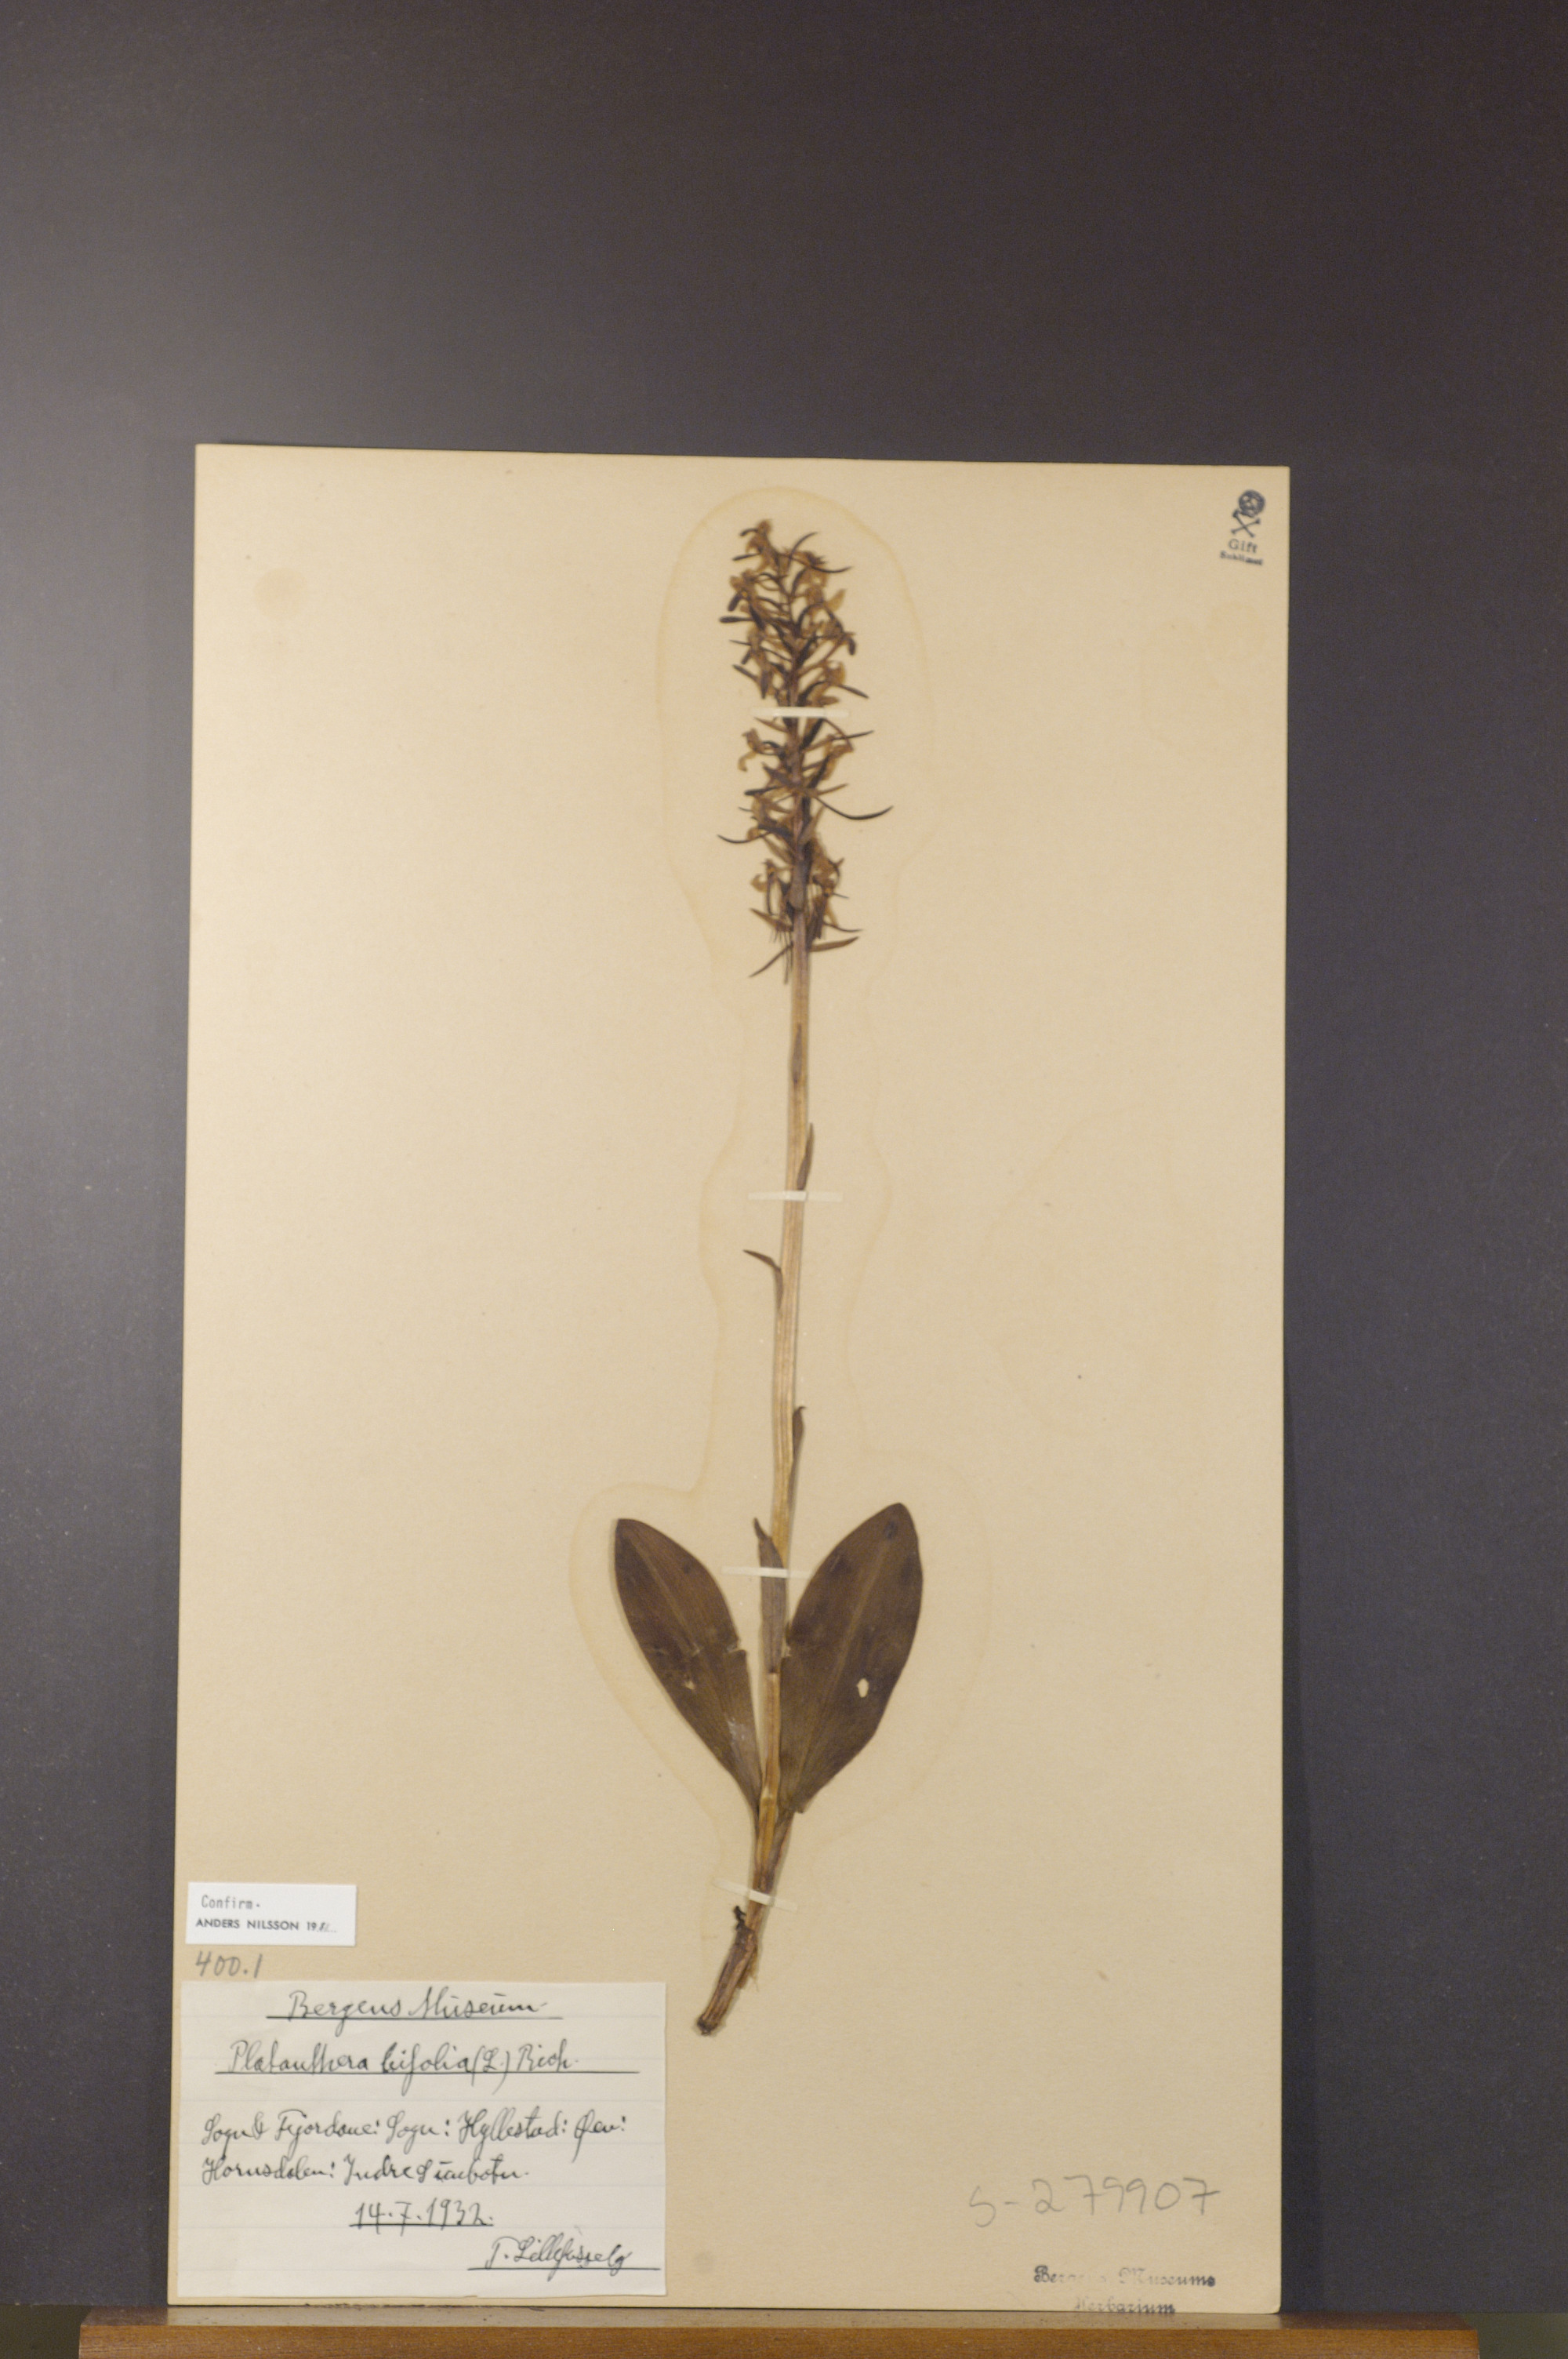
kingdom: Plantae
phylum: Tracheophyta
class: Liliopsida
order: Asparagales
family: Orchidaceae
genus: Platanthera
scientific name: Platanthera bifolia
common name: Lesser butterfly-orchid
